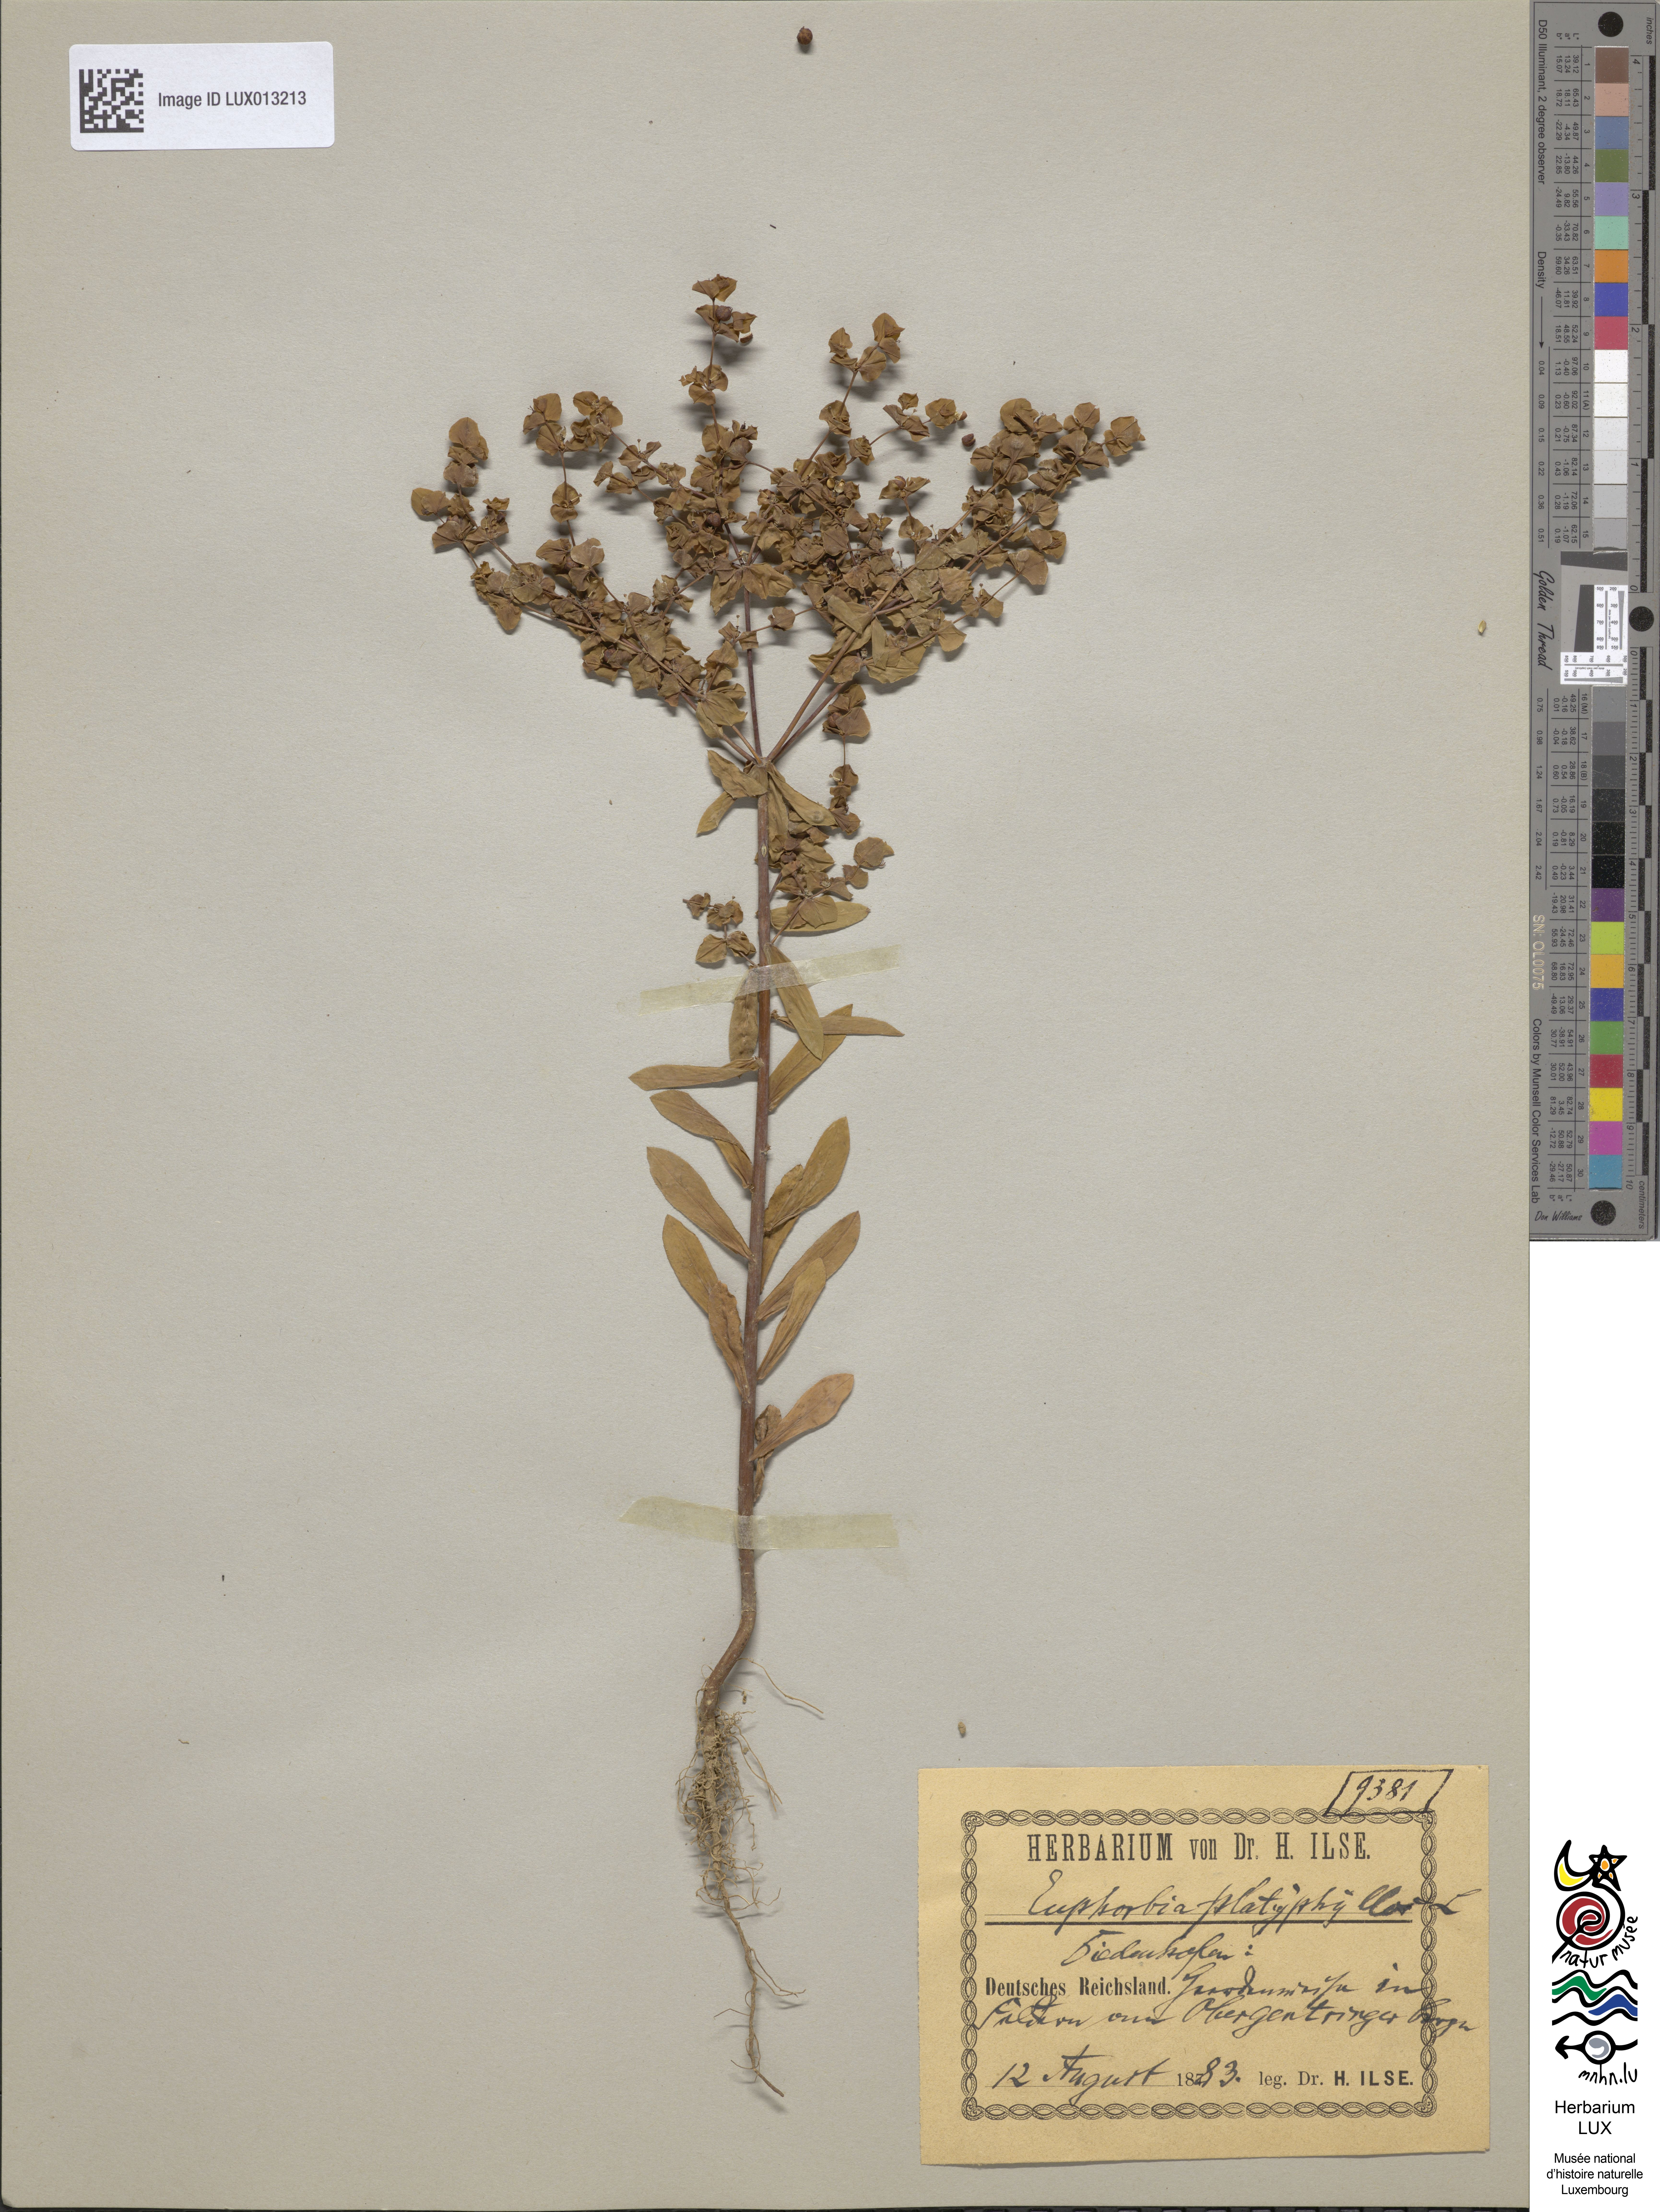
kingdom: Plantae
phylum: Tracheophyta
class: Magnoliopsida
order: Malpighiales
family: Euphorbiaceae
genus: Euphorbia
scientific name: Euphorbia platyphyllos
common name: Broad-leaved spurge
